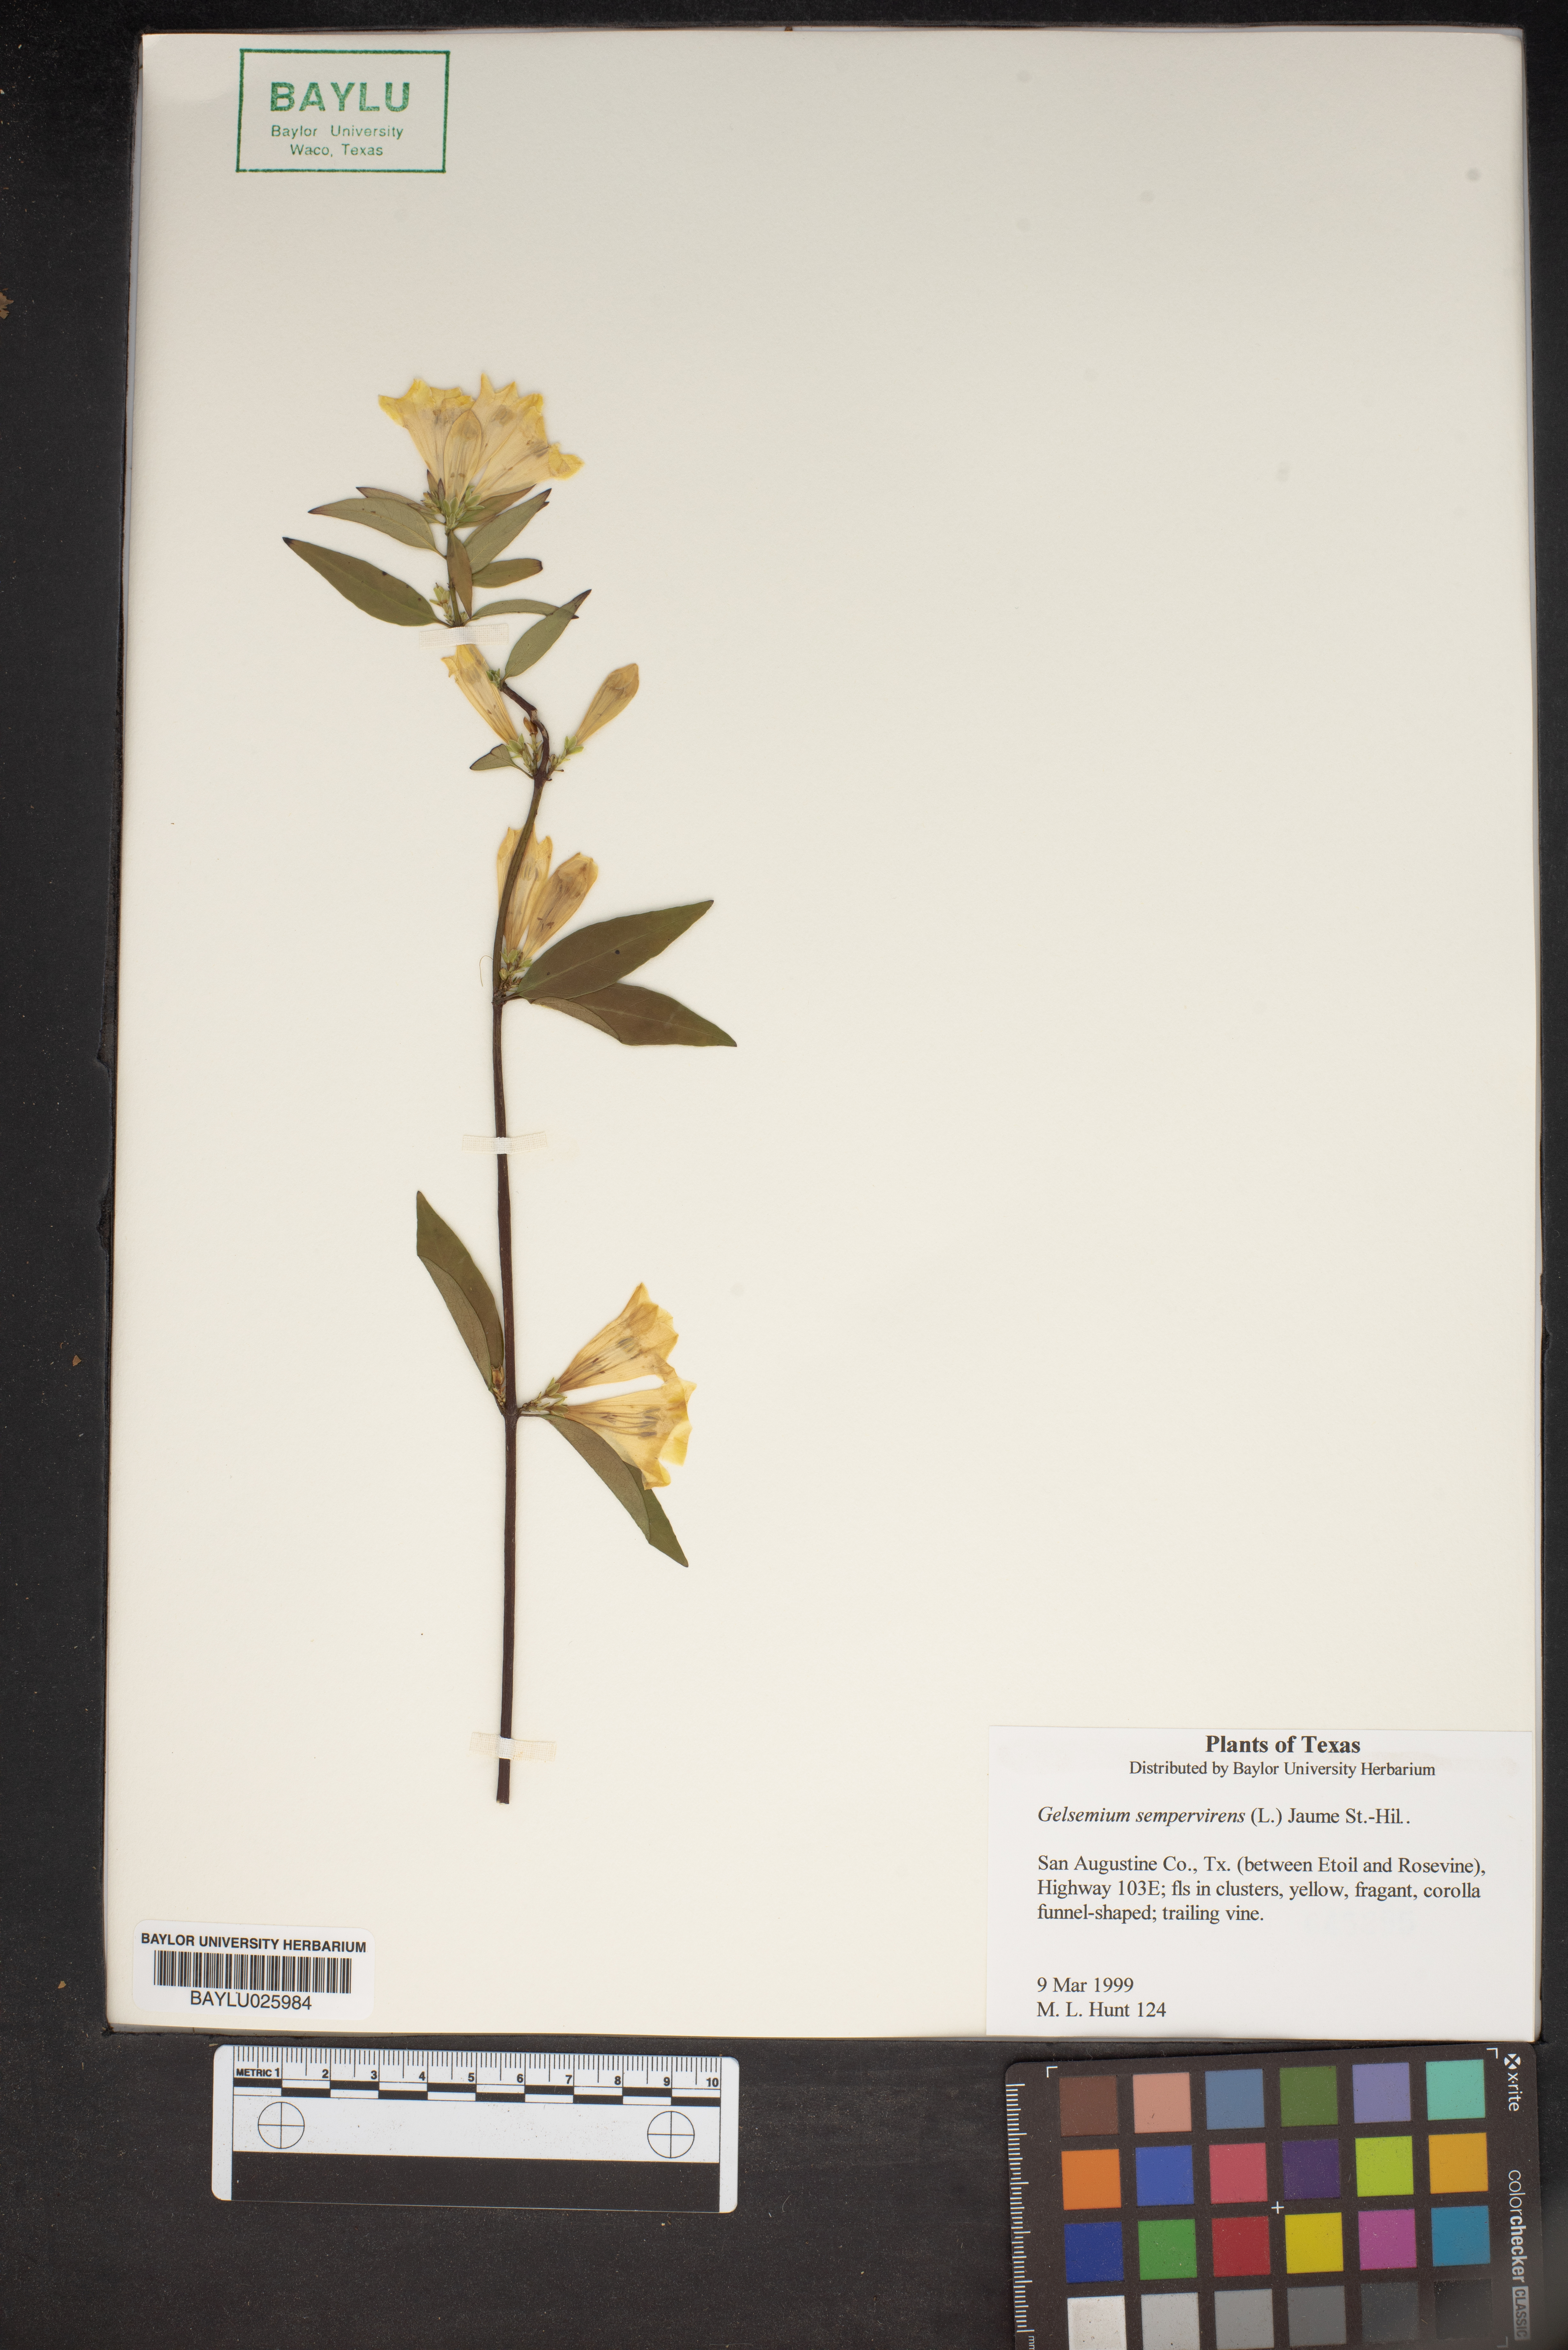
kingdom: Plantae
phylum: Tracheophyta
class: Magnoliopsida
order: Gentianales
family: Gelsemiaceae
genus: Gelsemium
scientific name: Gelsemium sempervirens
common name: Carolina-jasmine
